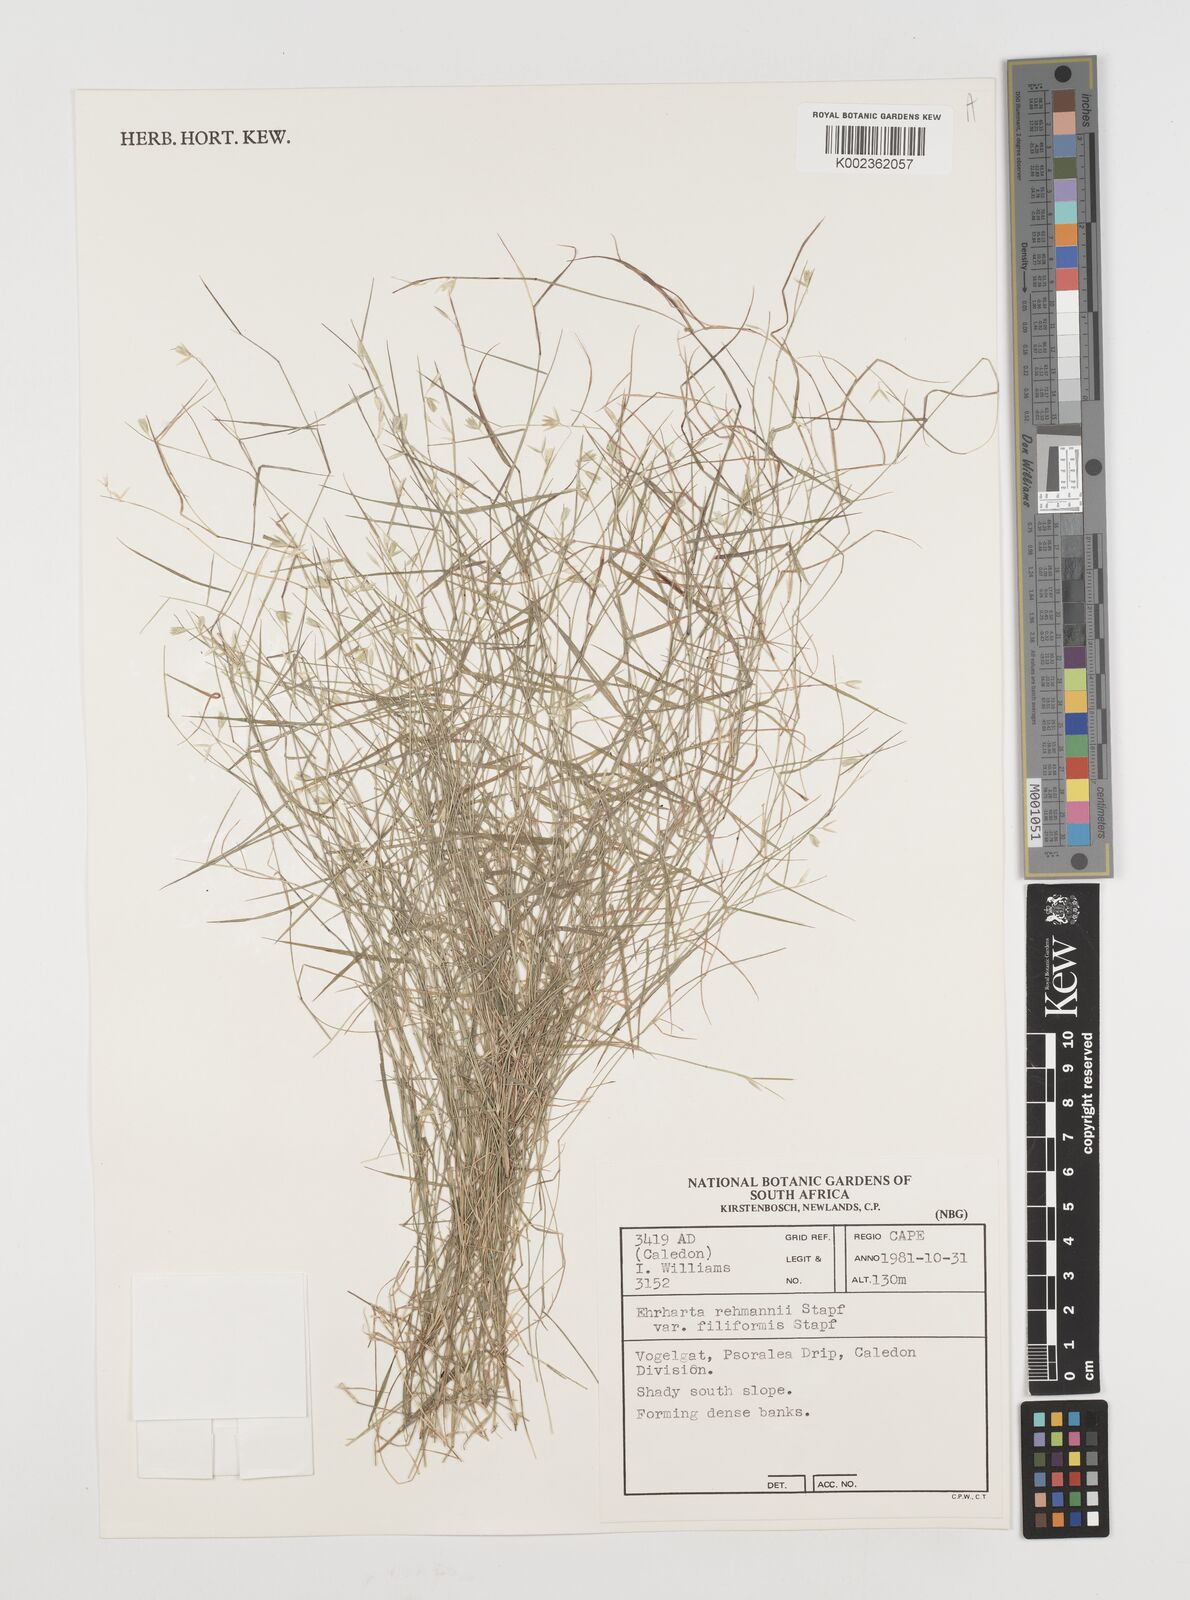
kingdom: Plantae
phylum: Tracheophyta
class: Liliopsida
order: Poales
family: Poaceae
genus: Ehrharta
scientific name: Ehrharta rehmannii
